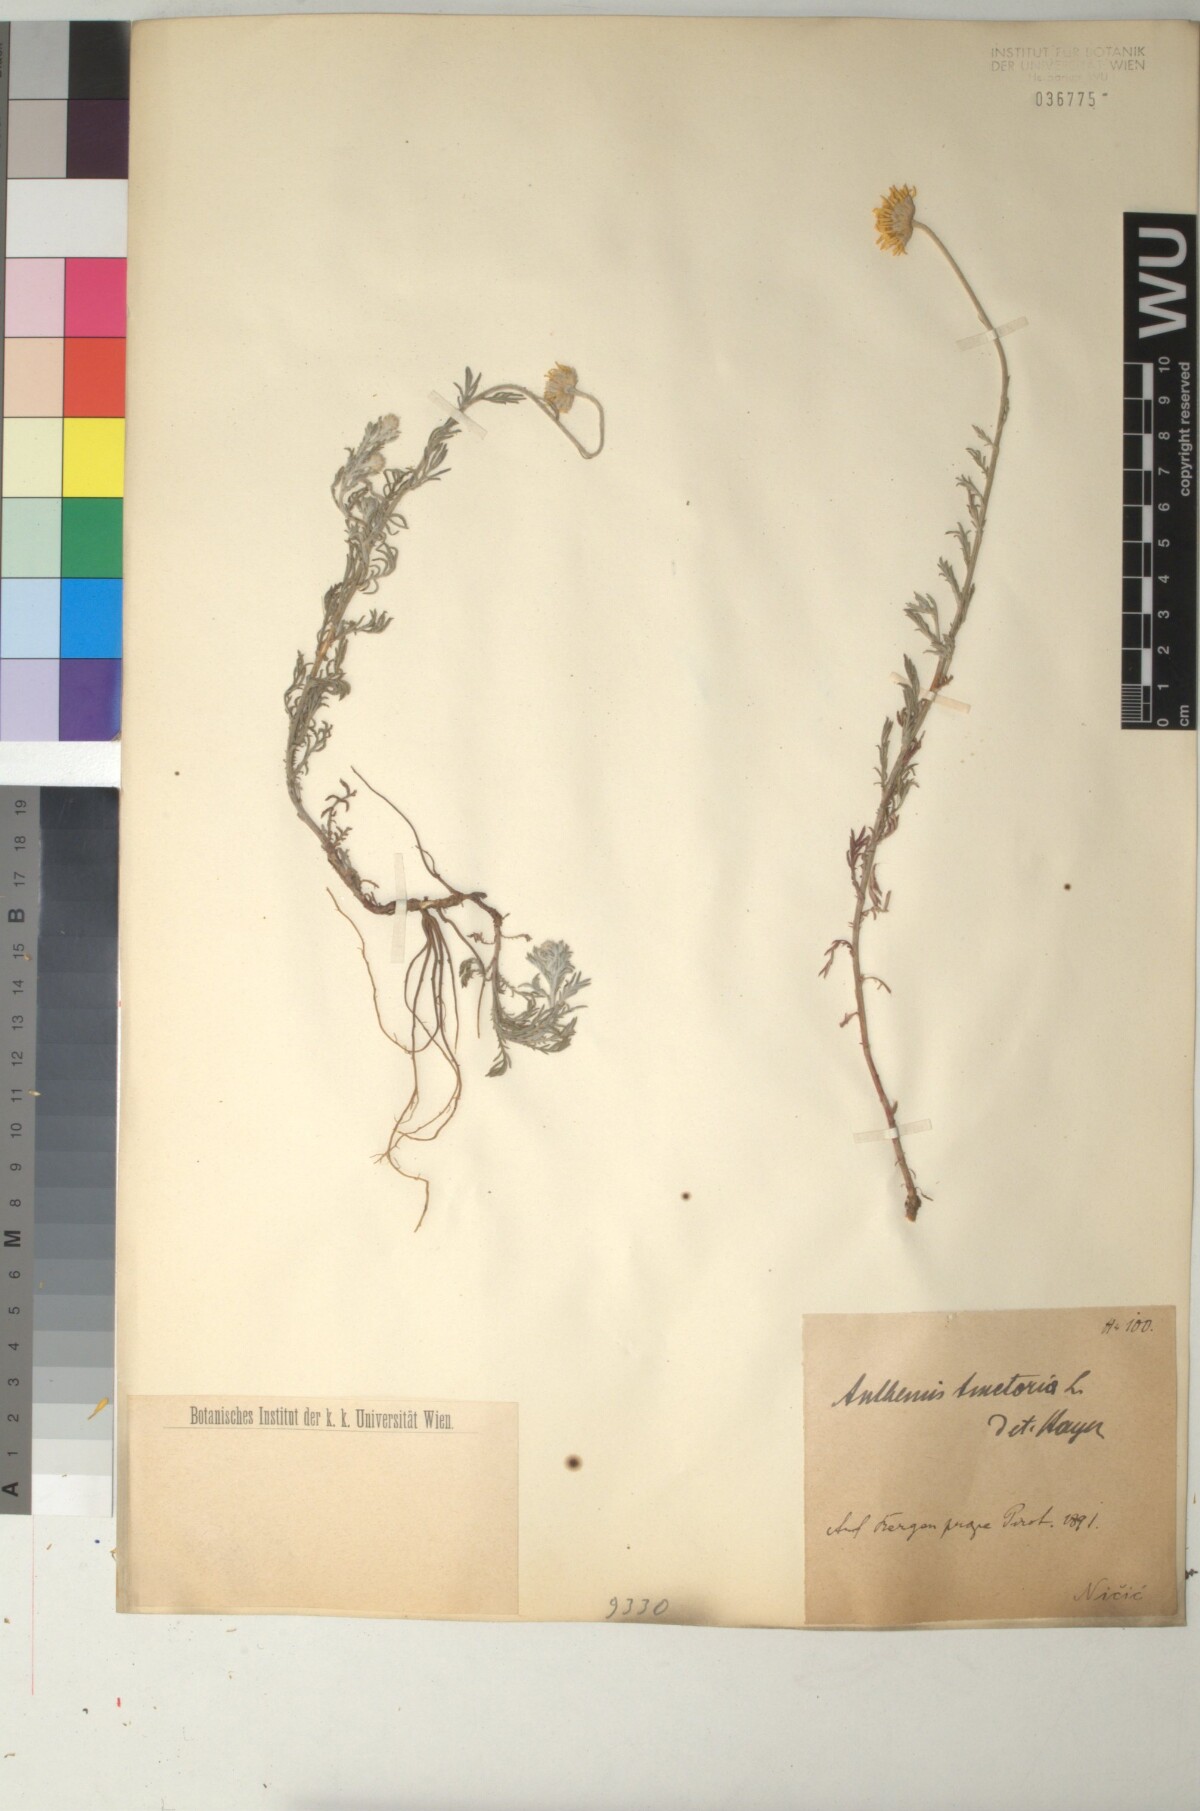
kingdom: Plantae
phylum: Tracheophyta
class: Magnoliopsida
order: Asterales
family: Asteraceae
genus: Cota
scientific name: Cota tinctoria
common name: Golden chamomile
